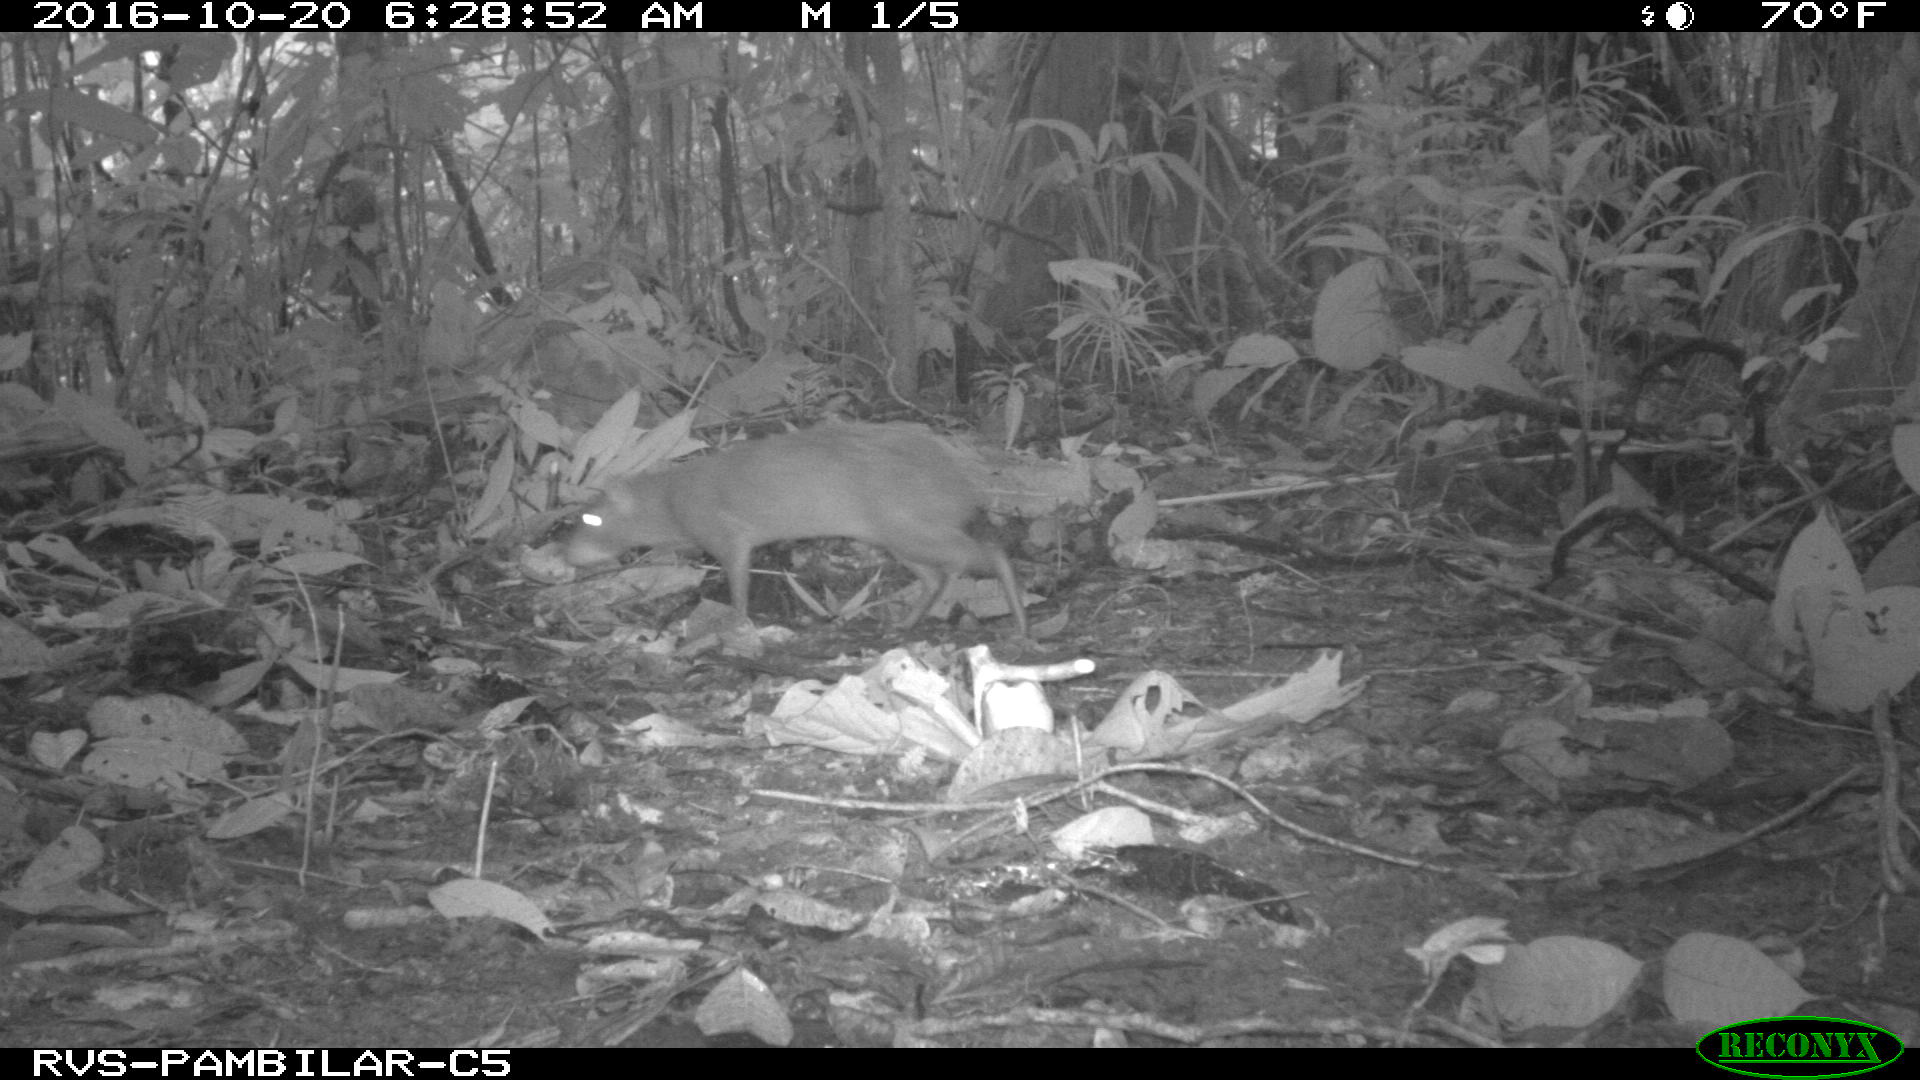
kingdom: Animalia
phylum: Chordata
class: Mammalia
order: Rodentia
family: Dasyproctidae
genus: Dasyprocta
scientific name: Dasyprocta punctata
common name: Central american agouti
